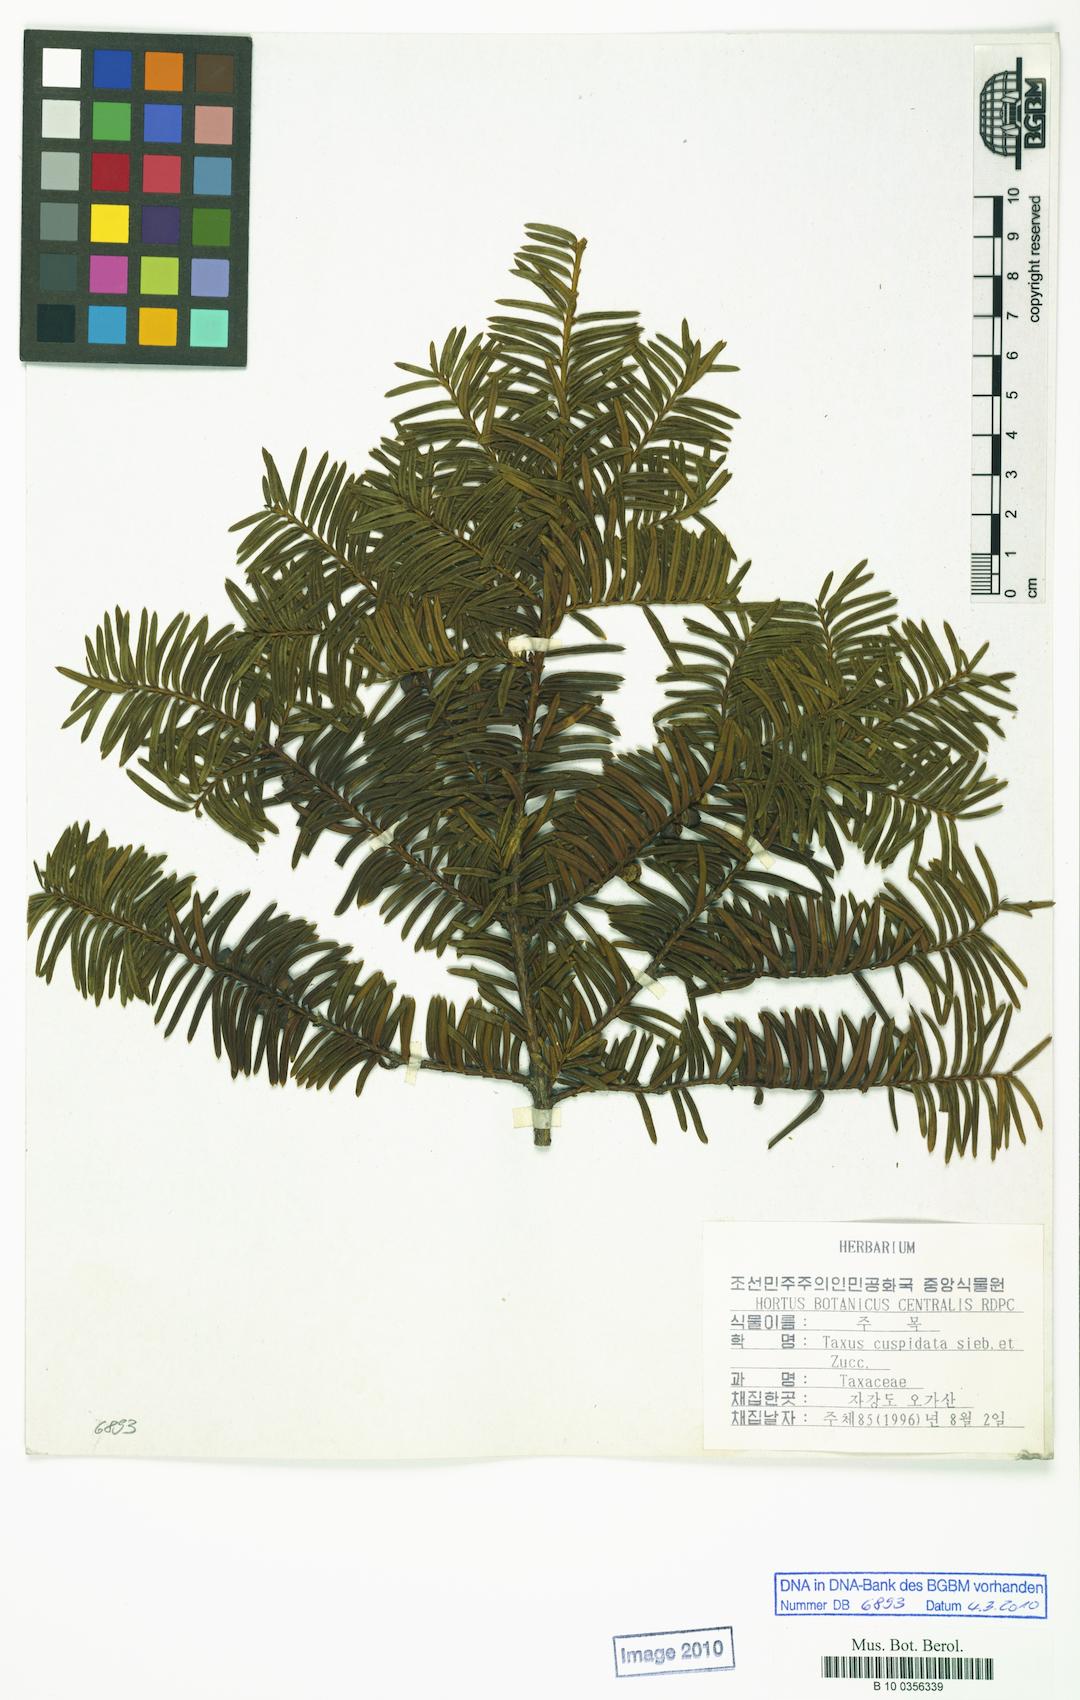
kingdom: Plantae
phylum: Tracheophyta
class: Pinopsida
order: Pinales
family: Taxaceae
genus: Taxus
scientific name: Taxus cuspidata
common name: Japanese yew
